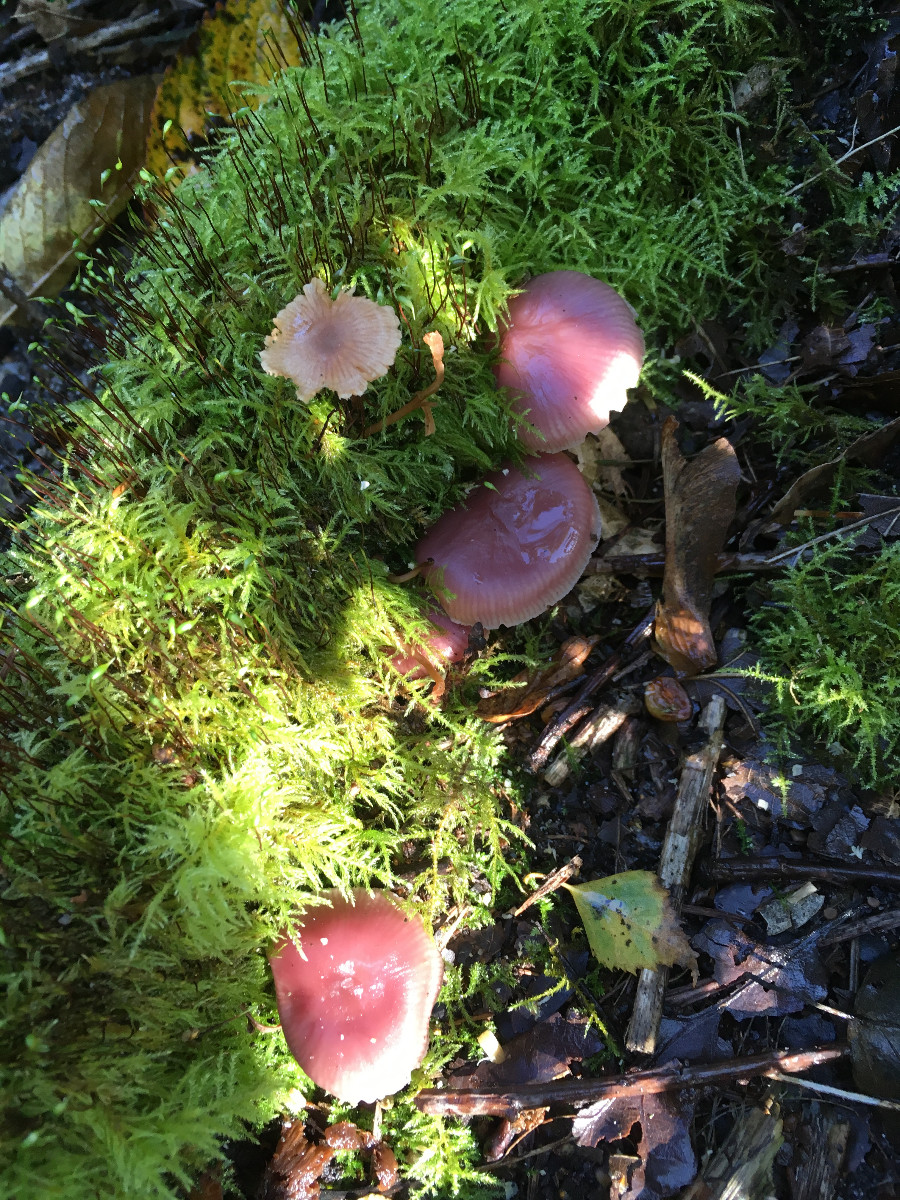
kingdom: Fungi
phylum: Basidiomycota
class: Agaricomycetes
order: Agaricales
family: Mycenaceae
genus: Mycena
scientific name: Mycena rosea
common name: rosa huesvamp
